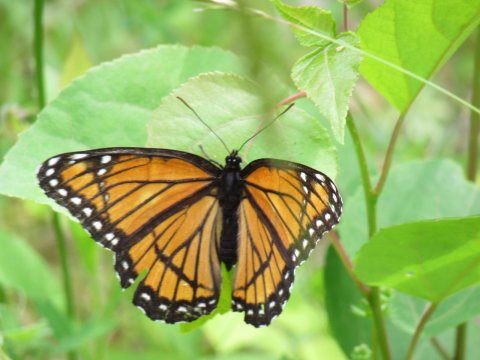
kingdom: Animalia
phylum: Arthropoda
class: Insecta
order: Lepidoptera
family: Nymphalidae
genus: Limenitis
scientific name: Limenitis archippus
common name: Viceroy
